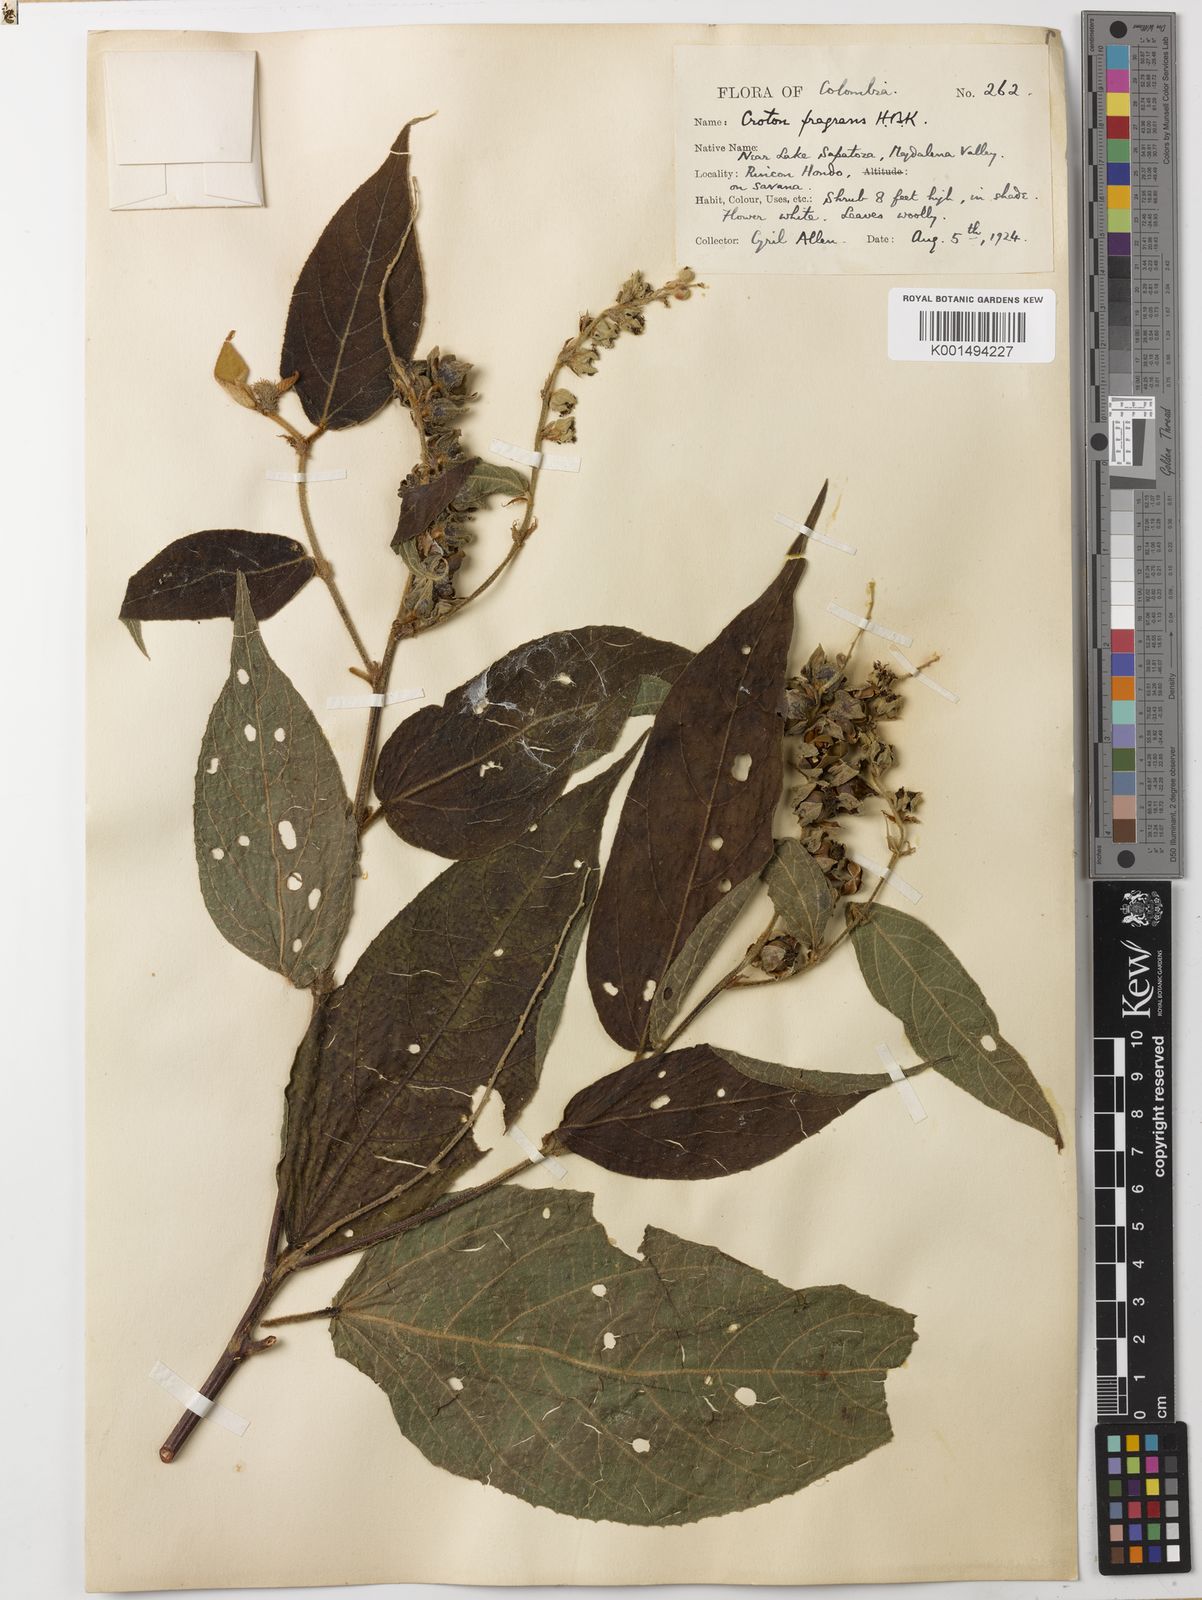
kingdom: Plantae
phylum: Tracheophyta
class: Magnoliopsida
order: Malpighiales
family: Euphorbiaceae
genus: Croton
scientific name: Croton fragrans
